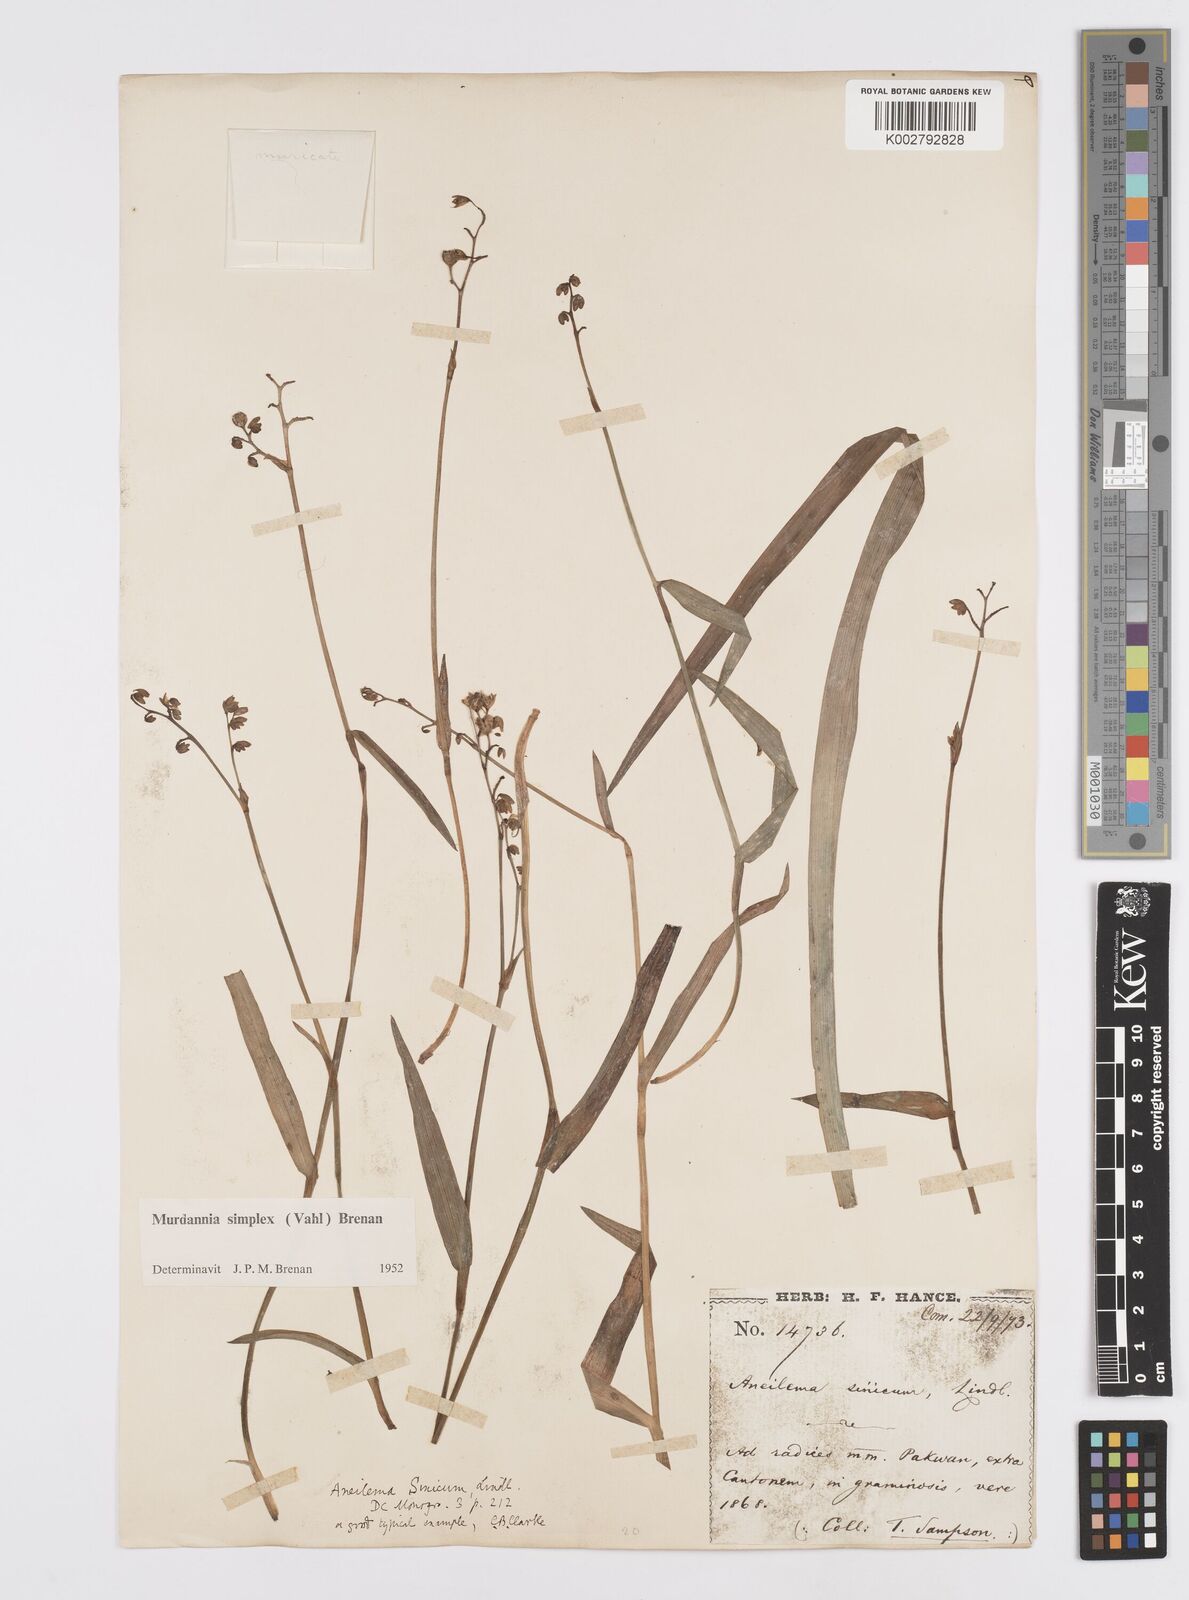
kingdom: Plantae
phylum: Tracheophyta
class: Liliopsida
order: Commelinales
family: Commelinaceae
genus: Murdannia
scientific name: Murdannia
